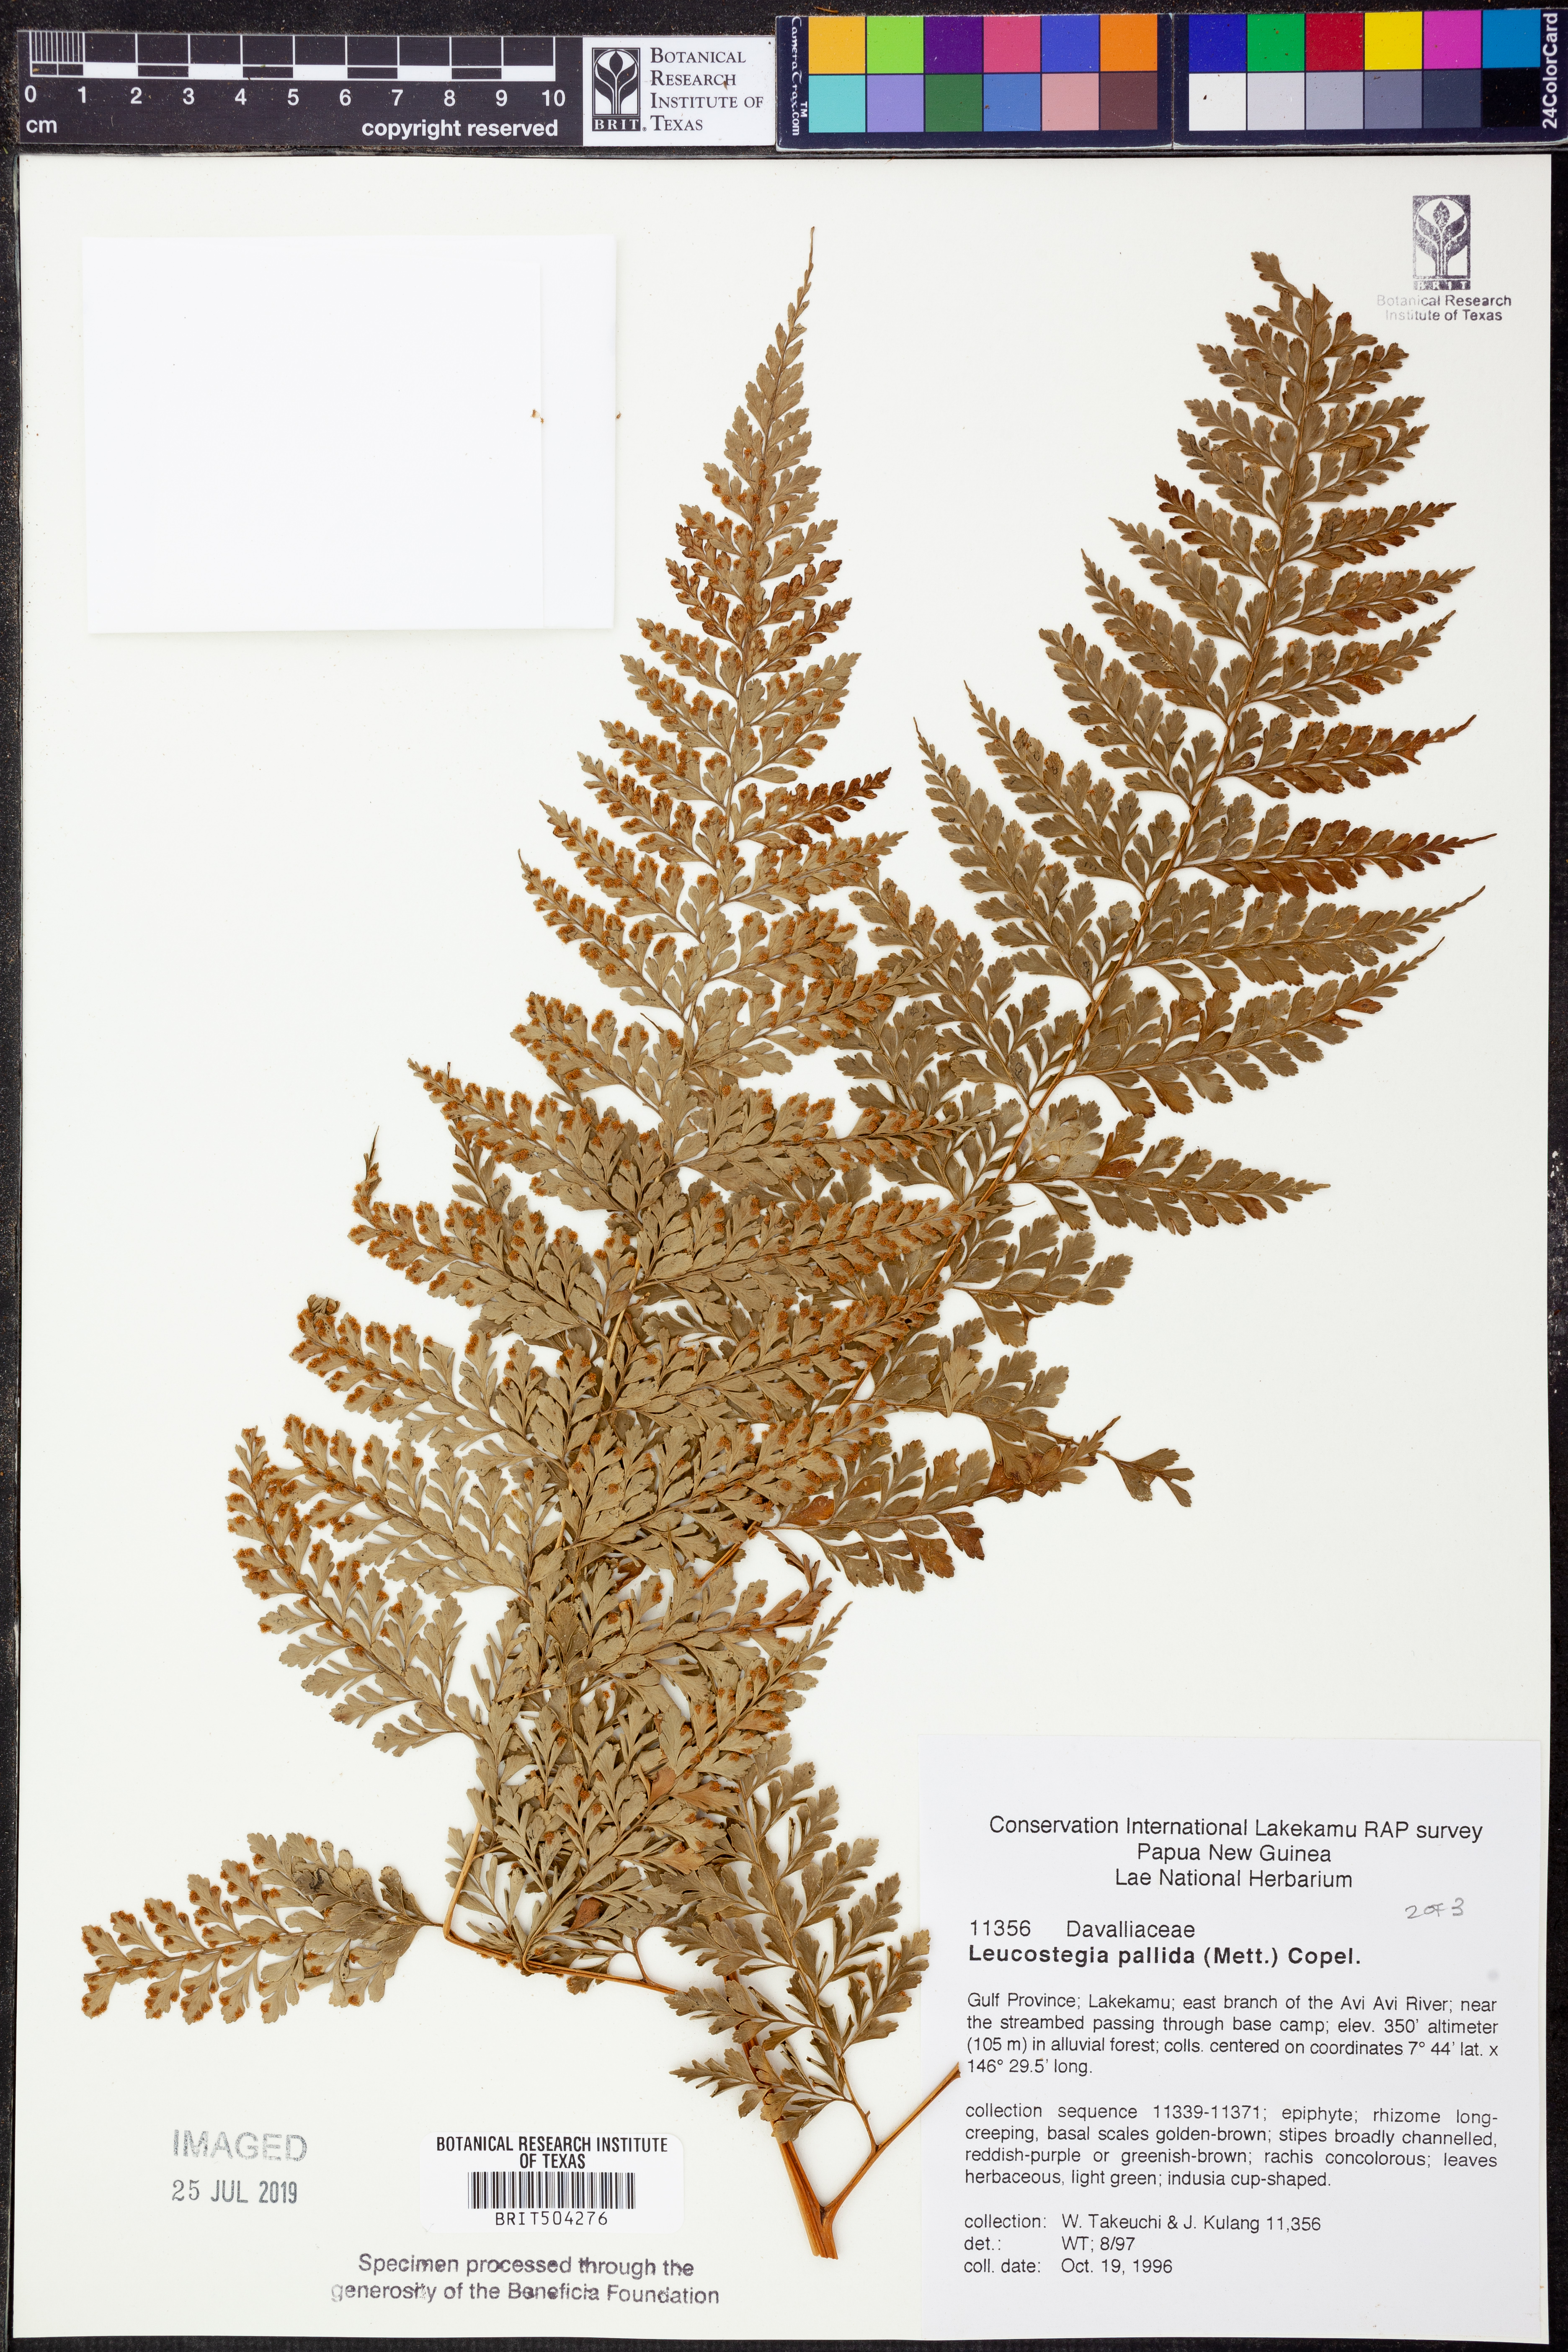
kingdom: Plantae
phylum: Tracheophyta
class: Polypodiopsida
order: Polypodiales
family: Hypodematiaceae
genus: Leucostegia
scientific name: Leucostegia pallida
